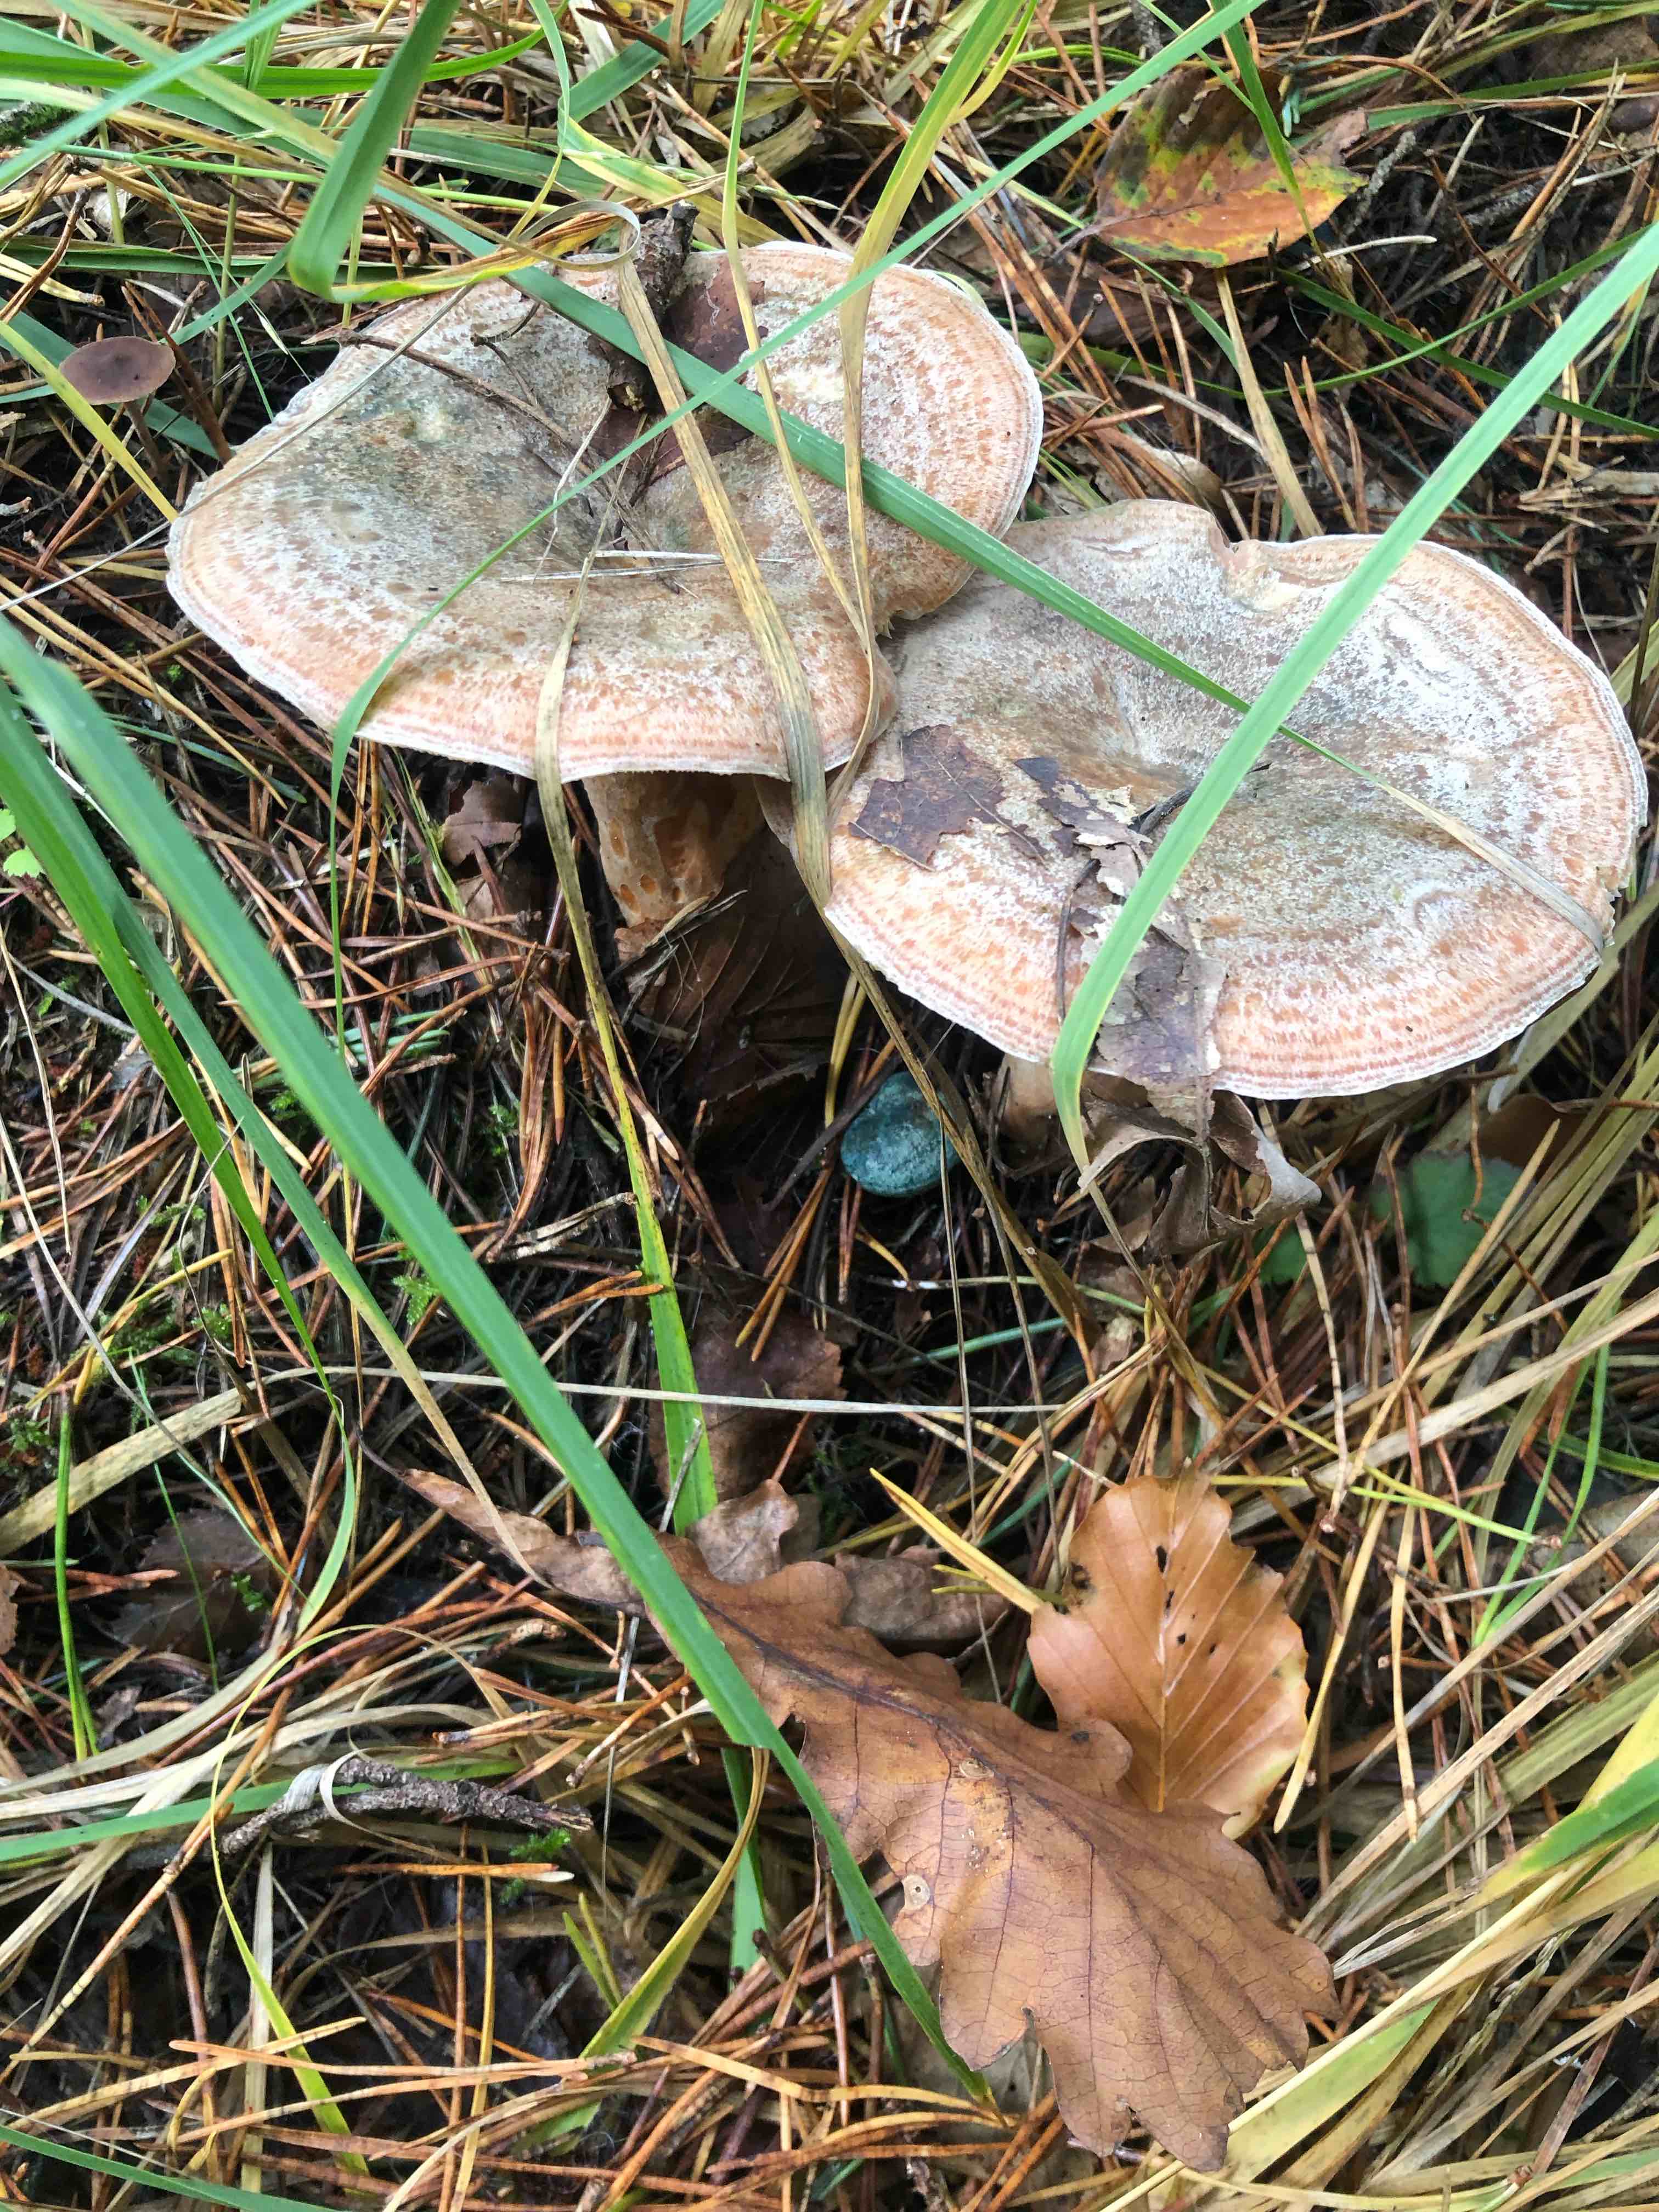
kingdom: Fungi
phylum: Basidiomycota
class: Agaricomycetes
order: Russulales
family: Russulaceae
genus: Lactarius
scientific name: Lactarius quieticolor
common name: tvefarvet mælkehat
